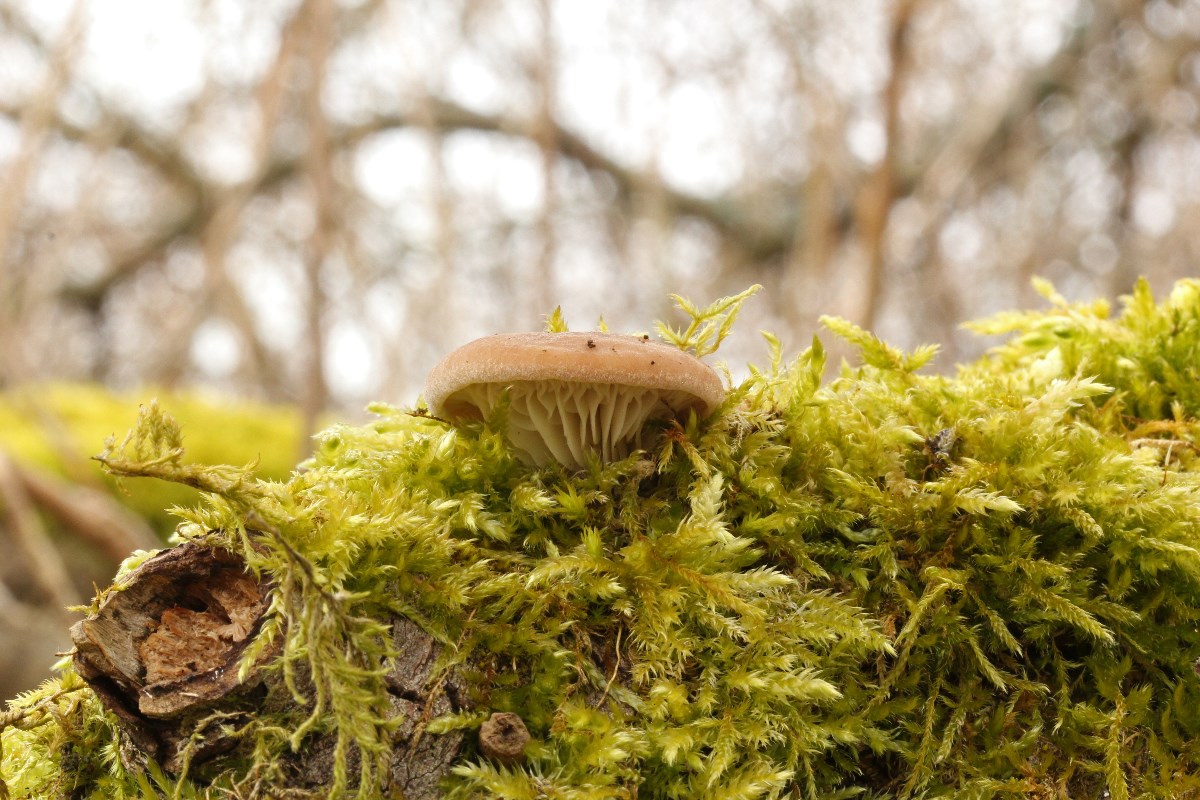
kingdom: Fungi
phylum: Basidiomycota
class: Agaricomycetes
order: Agaricales
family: Pleurotaceae
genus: Pleurotus
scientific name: Pleurotus ostreatus
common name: Oyster mushroom
